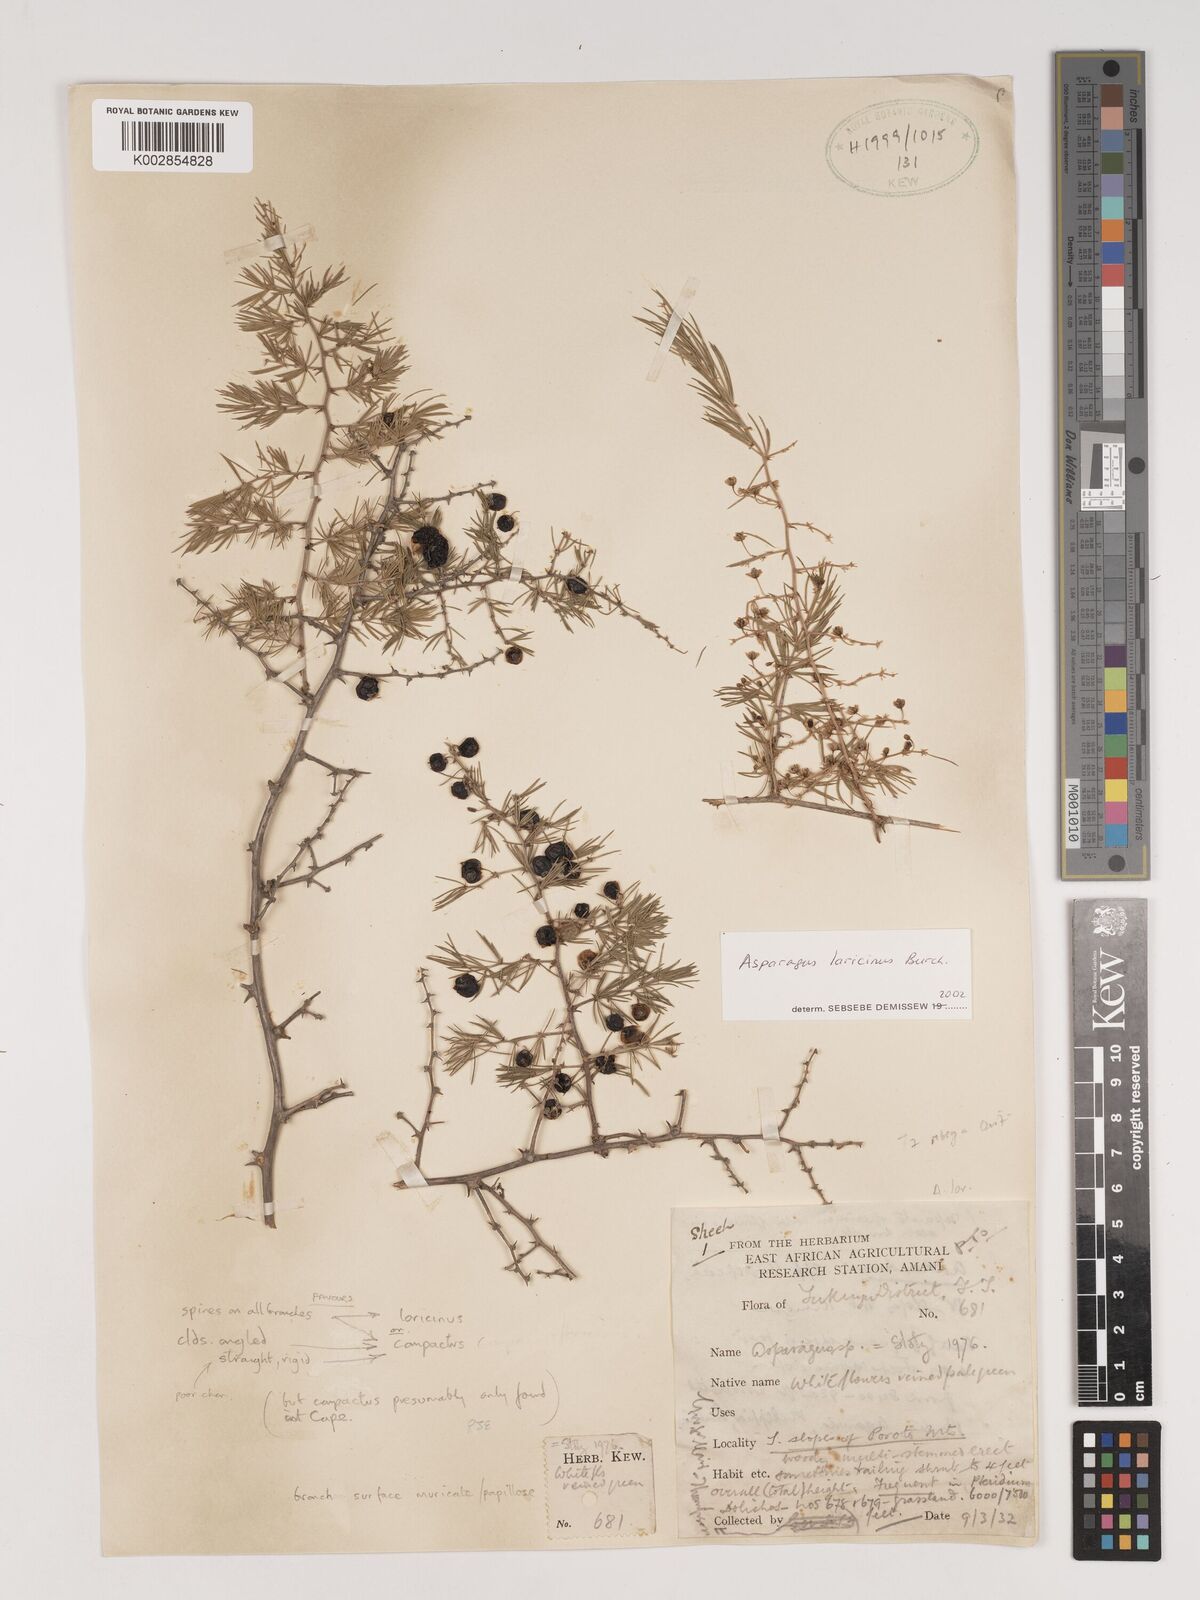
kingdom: Plantae
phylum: Tracheophyta
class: Liliopsida
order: Asparagales
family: Asparagaceae
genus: Asparagus
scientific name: Asparagus laricinus
